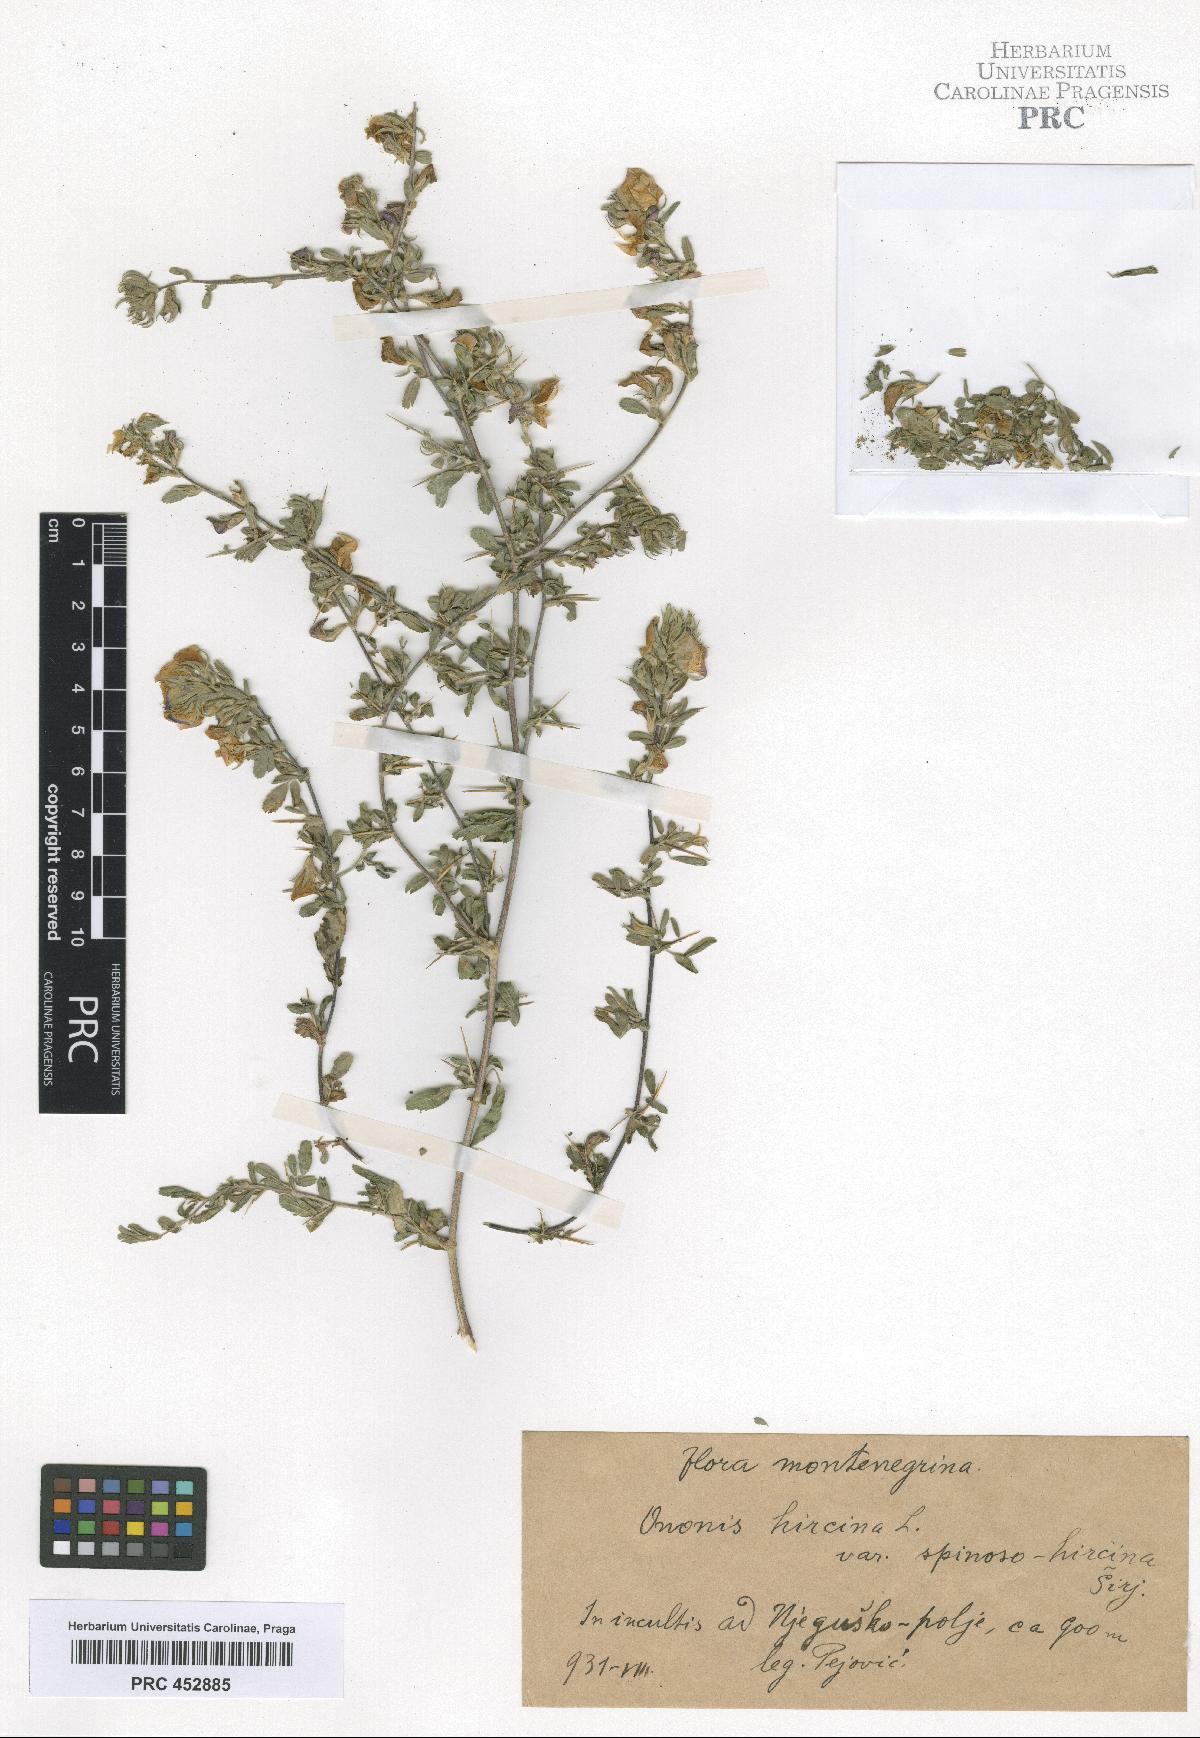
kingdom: Plantae
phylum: Tracheophyta
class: Magnoliopsida
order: Fabales
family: Fabaceae
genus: Ononis
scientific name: Ononis arvensis
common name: Field restharrow
